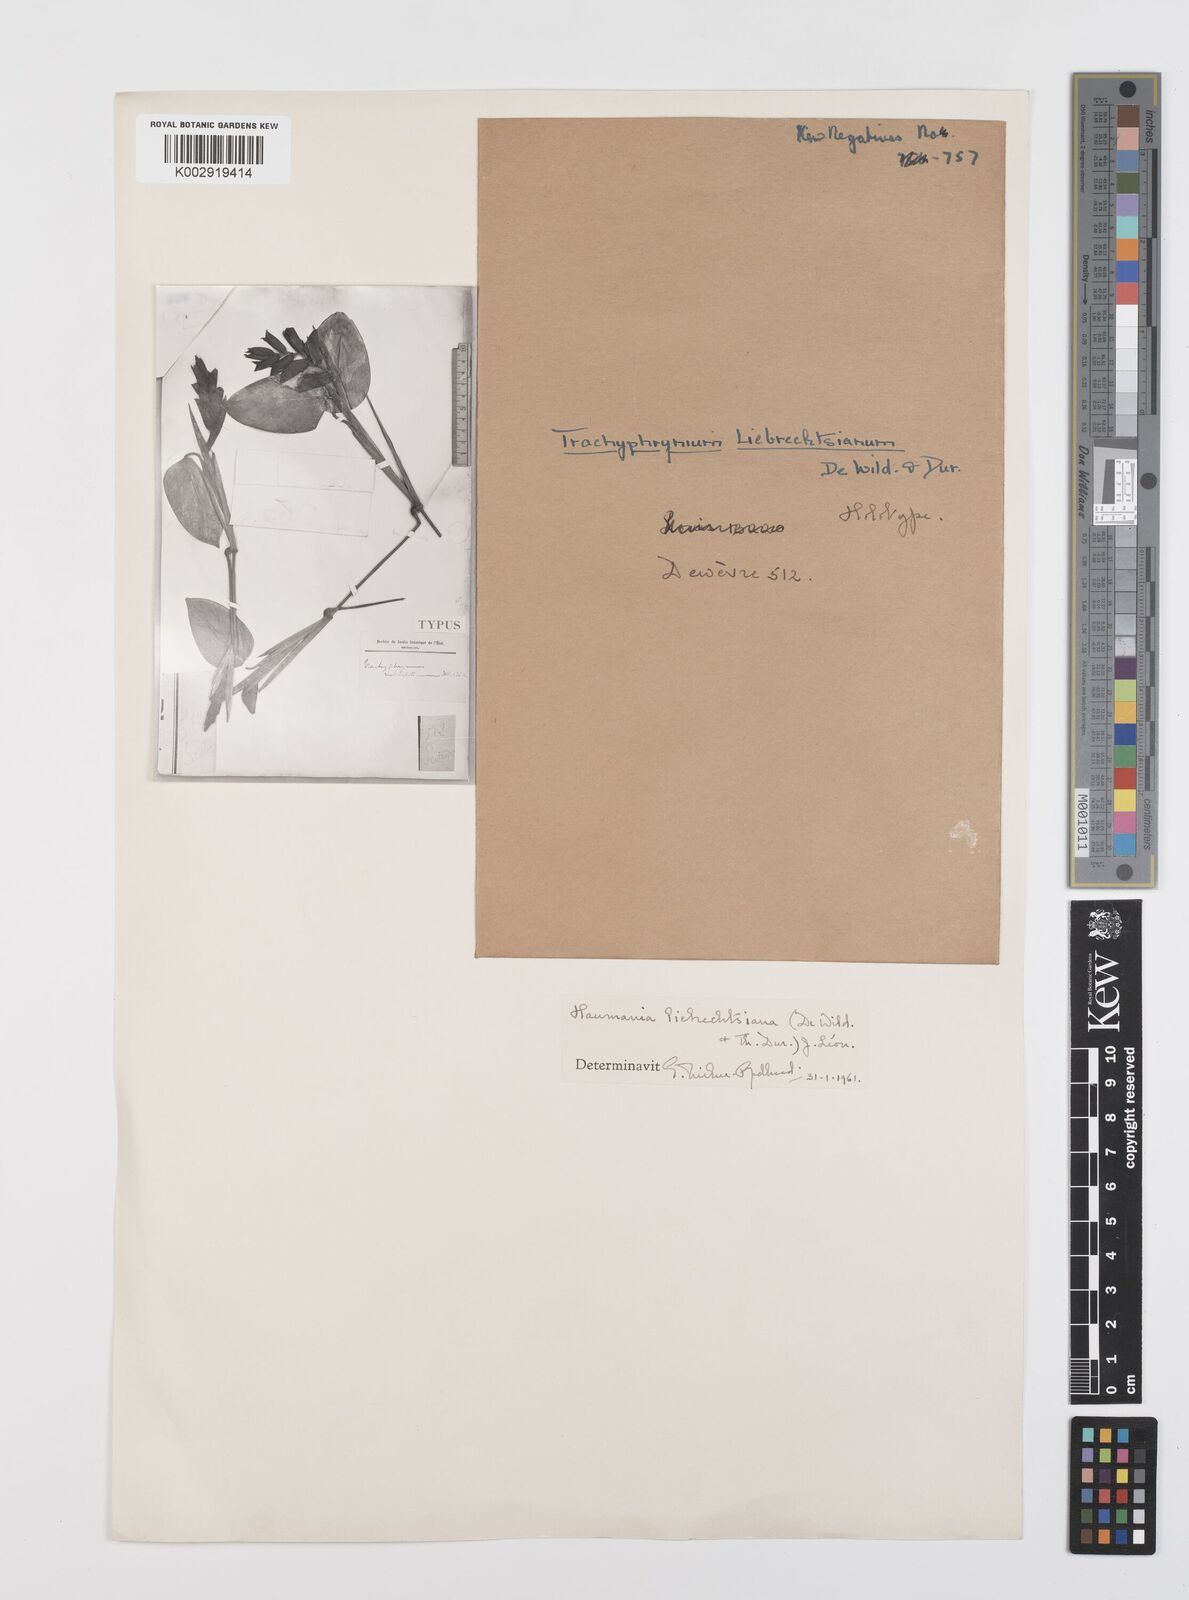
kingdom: Plantae
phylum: Tracheophyta
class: Liliopsida
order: Zingiberales
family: Marantaceae
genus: Haumania
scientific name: Haumania liebrechtsiana
